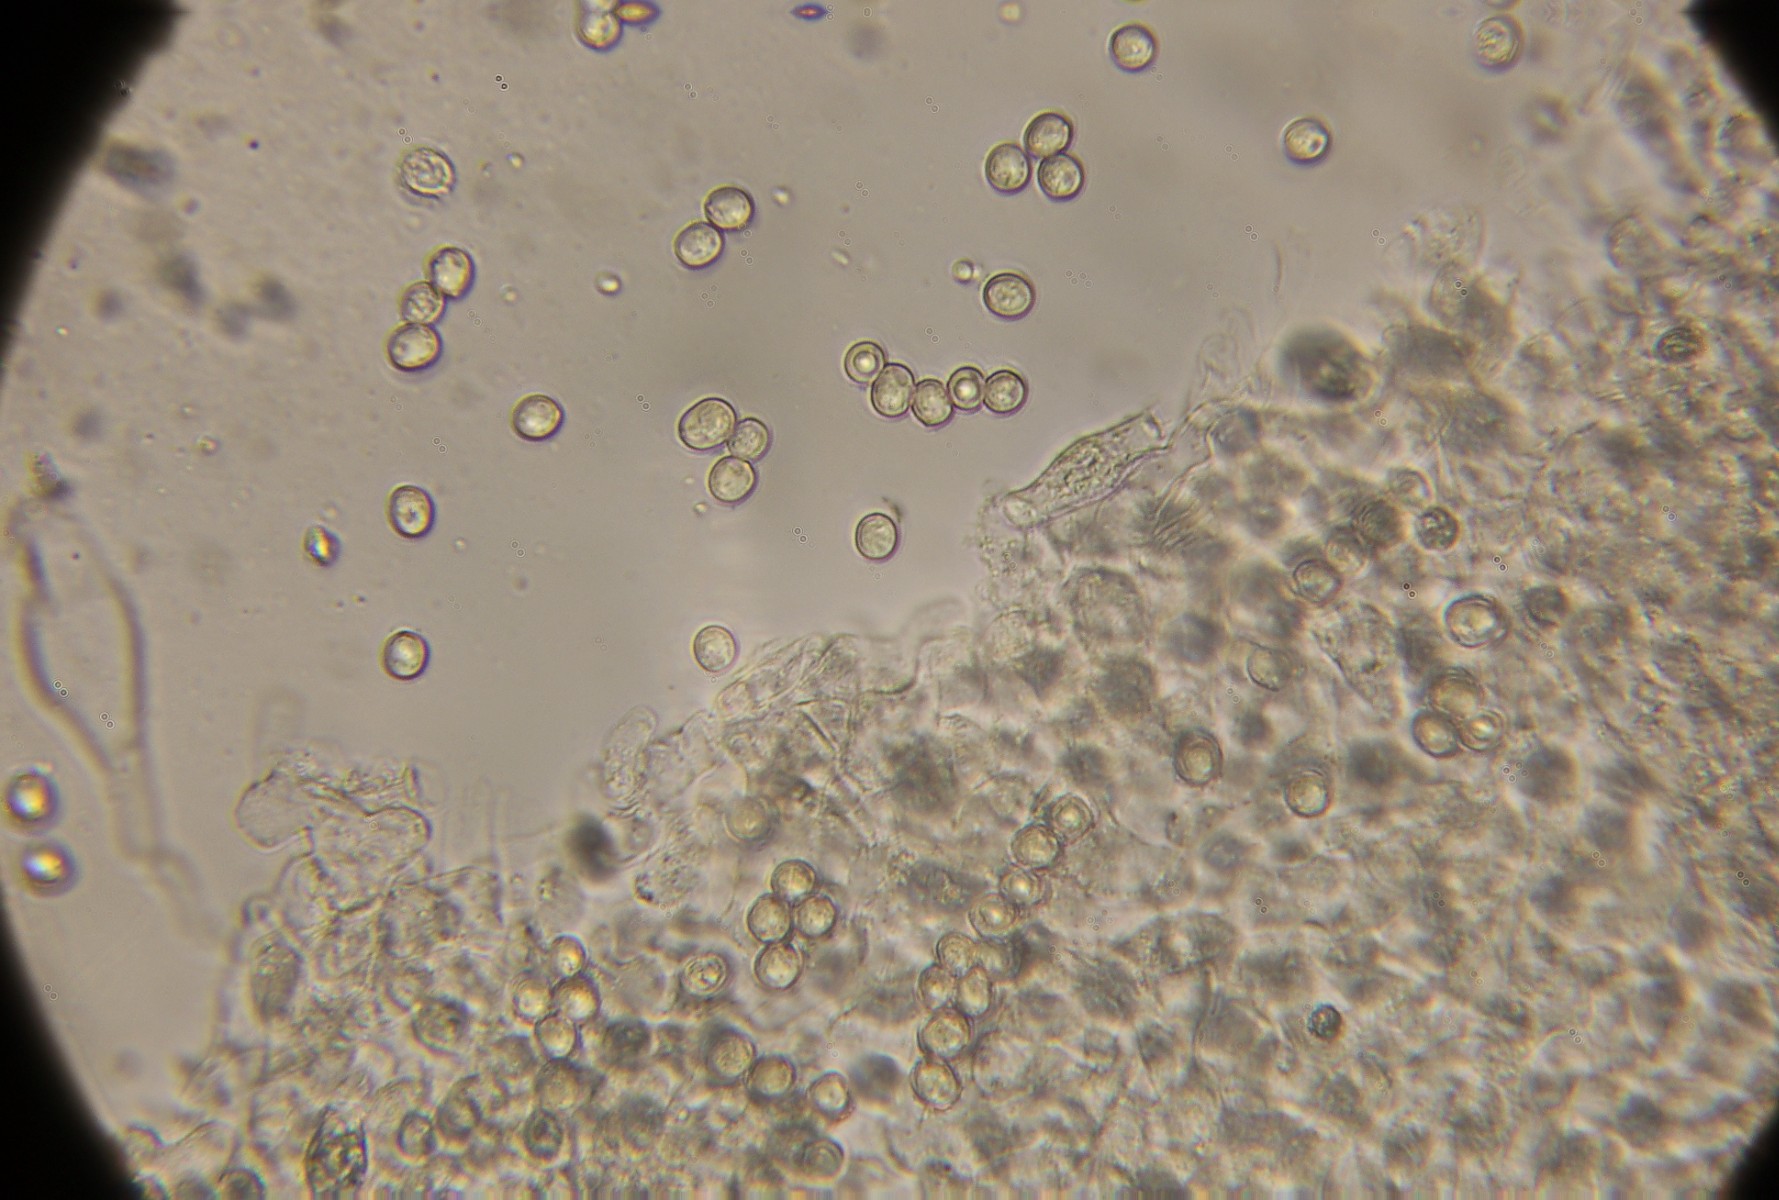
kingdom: Fungi
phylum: Basidiomycota
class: Agaricomycetes
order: Agaricales
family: Pluteaceae
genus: Pluteus
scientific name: Pluteus romellii
